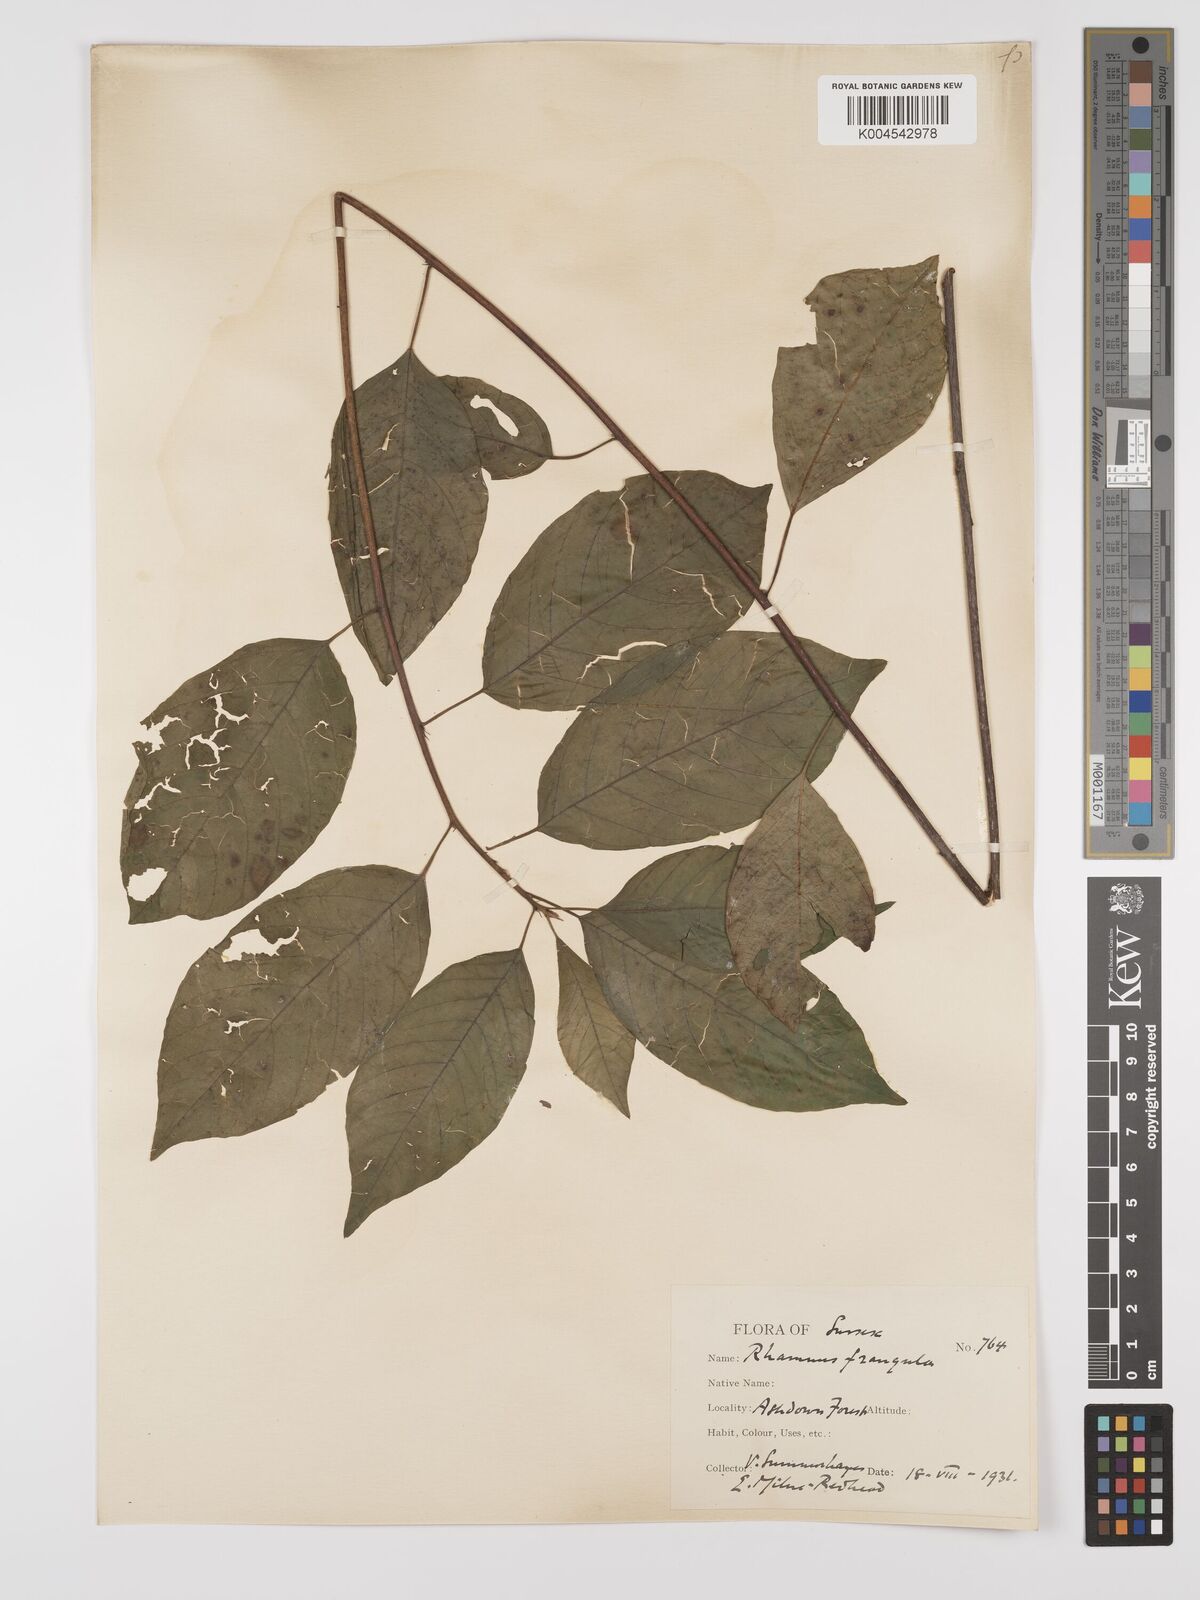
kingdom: Plantae
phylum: Tracheophyta
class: Magnoliopsida
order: Rosales
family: Rhamnaceae
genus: Frangula
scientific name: Frangula alnus
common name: Alder buckthorn
